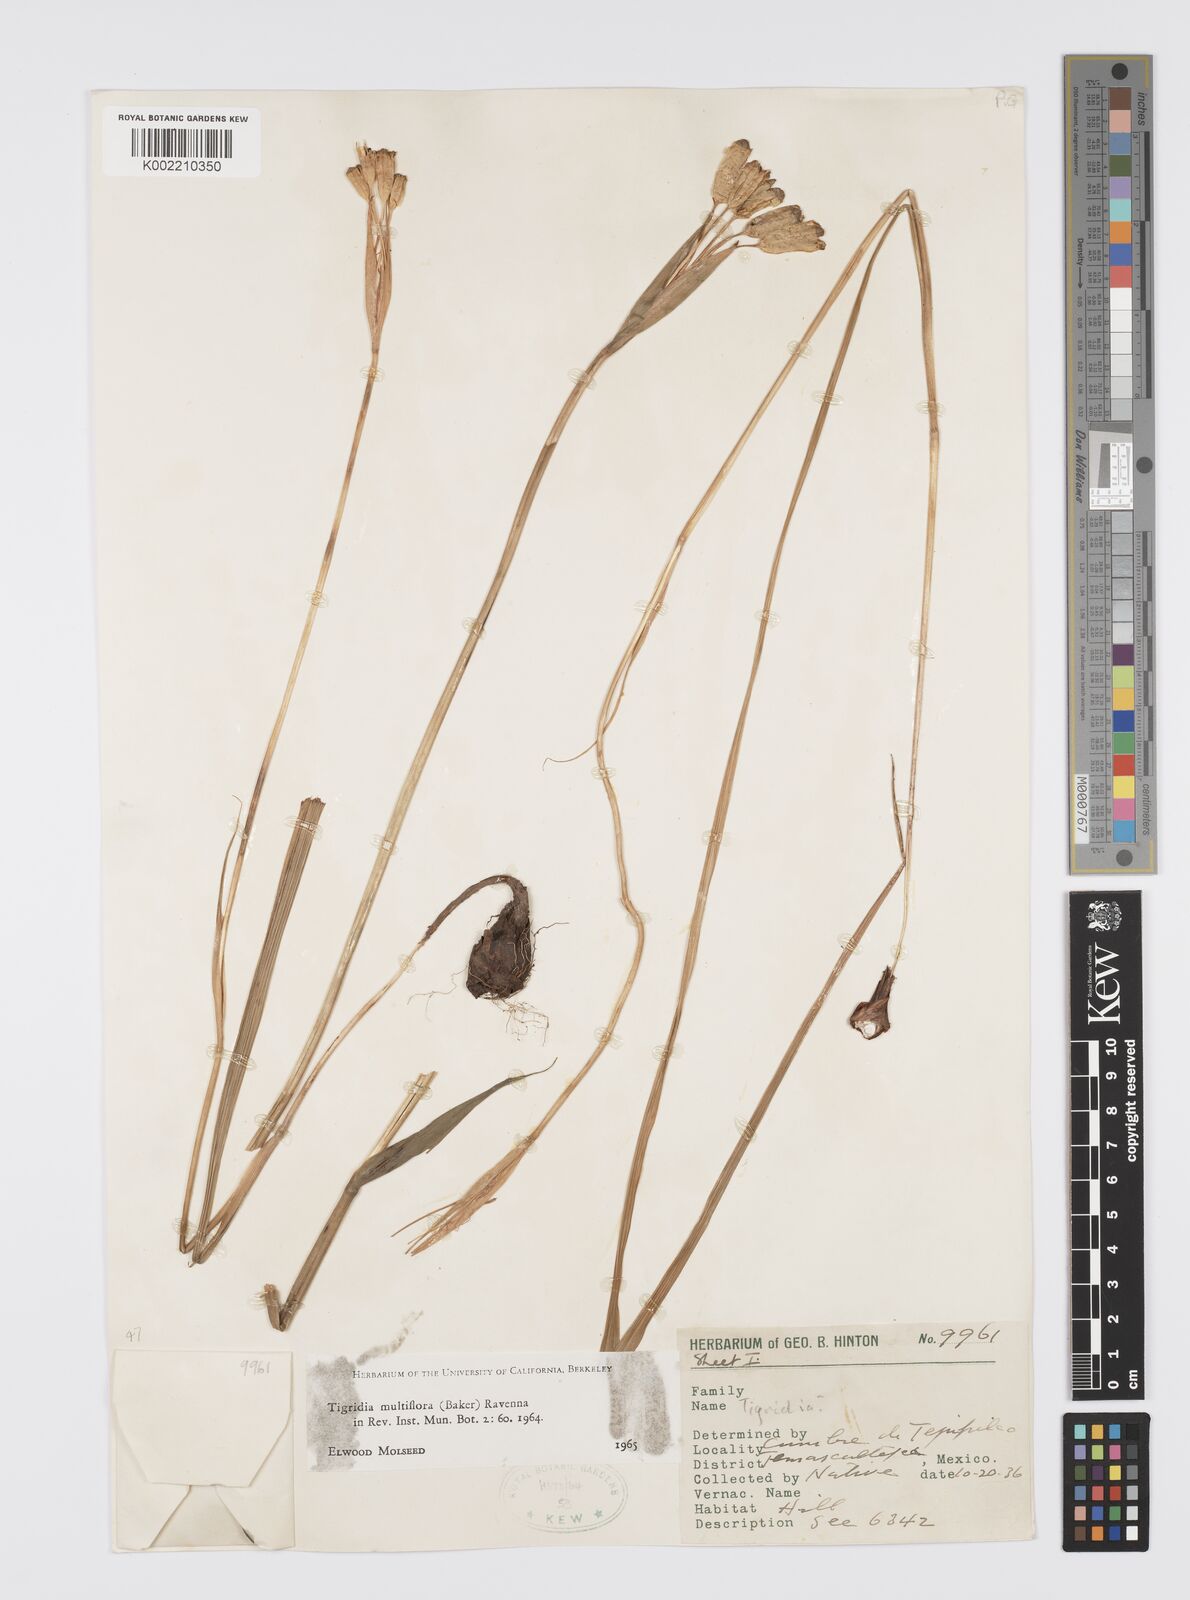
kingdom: Plantae
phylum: Tracheophyta
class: Liliopsida
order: Asparagales
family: Iridaceae
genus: Tigridia
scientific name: Tigridia multiflora
